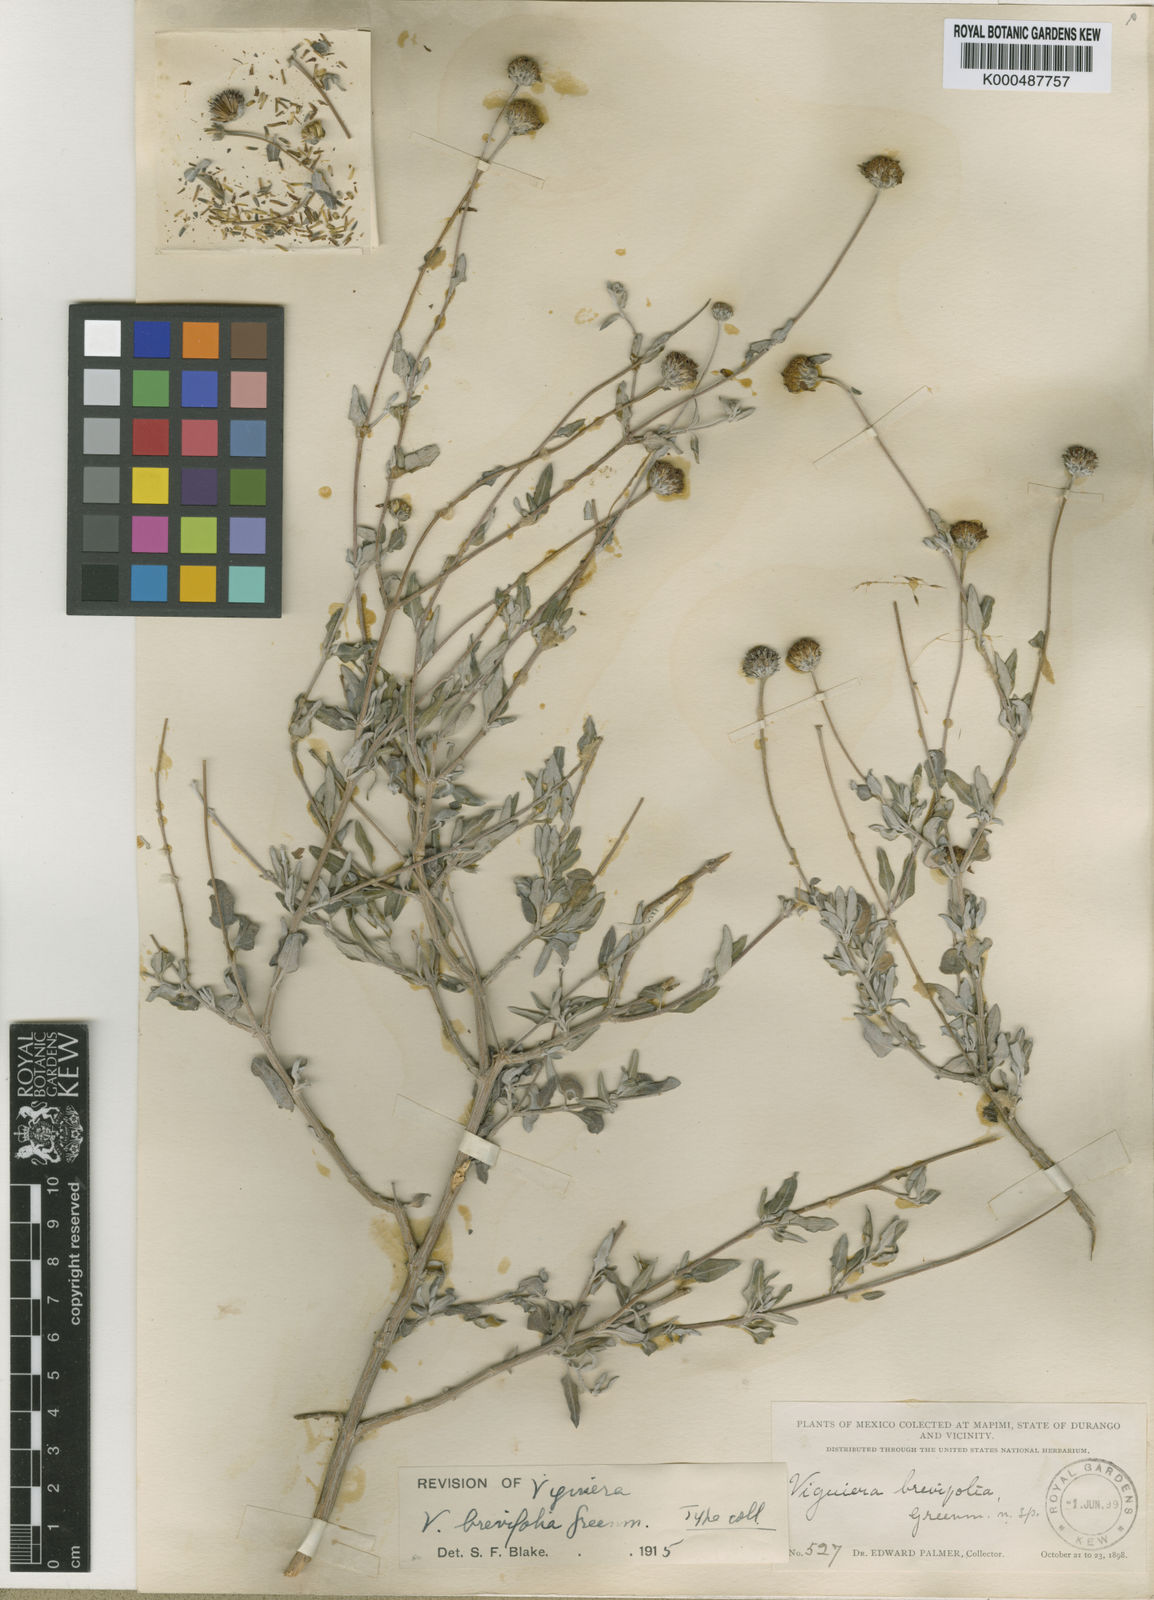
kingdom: Plantae
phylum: Tracheophyta
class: Magnoliopsida
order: Asterales
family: Asteraceae
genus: Calanticaria
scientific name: Calanticaria brevifolia
